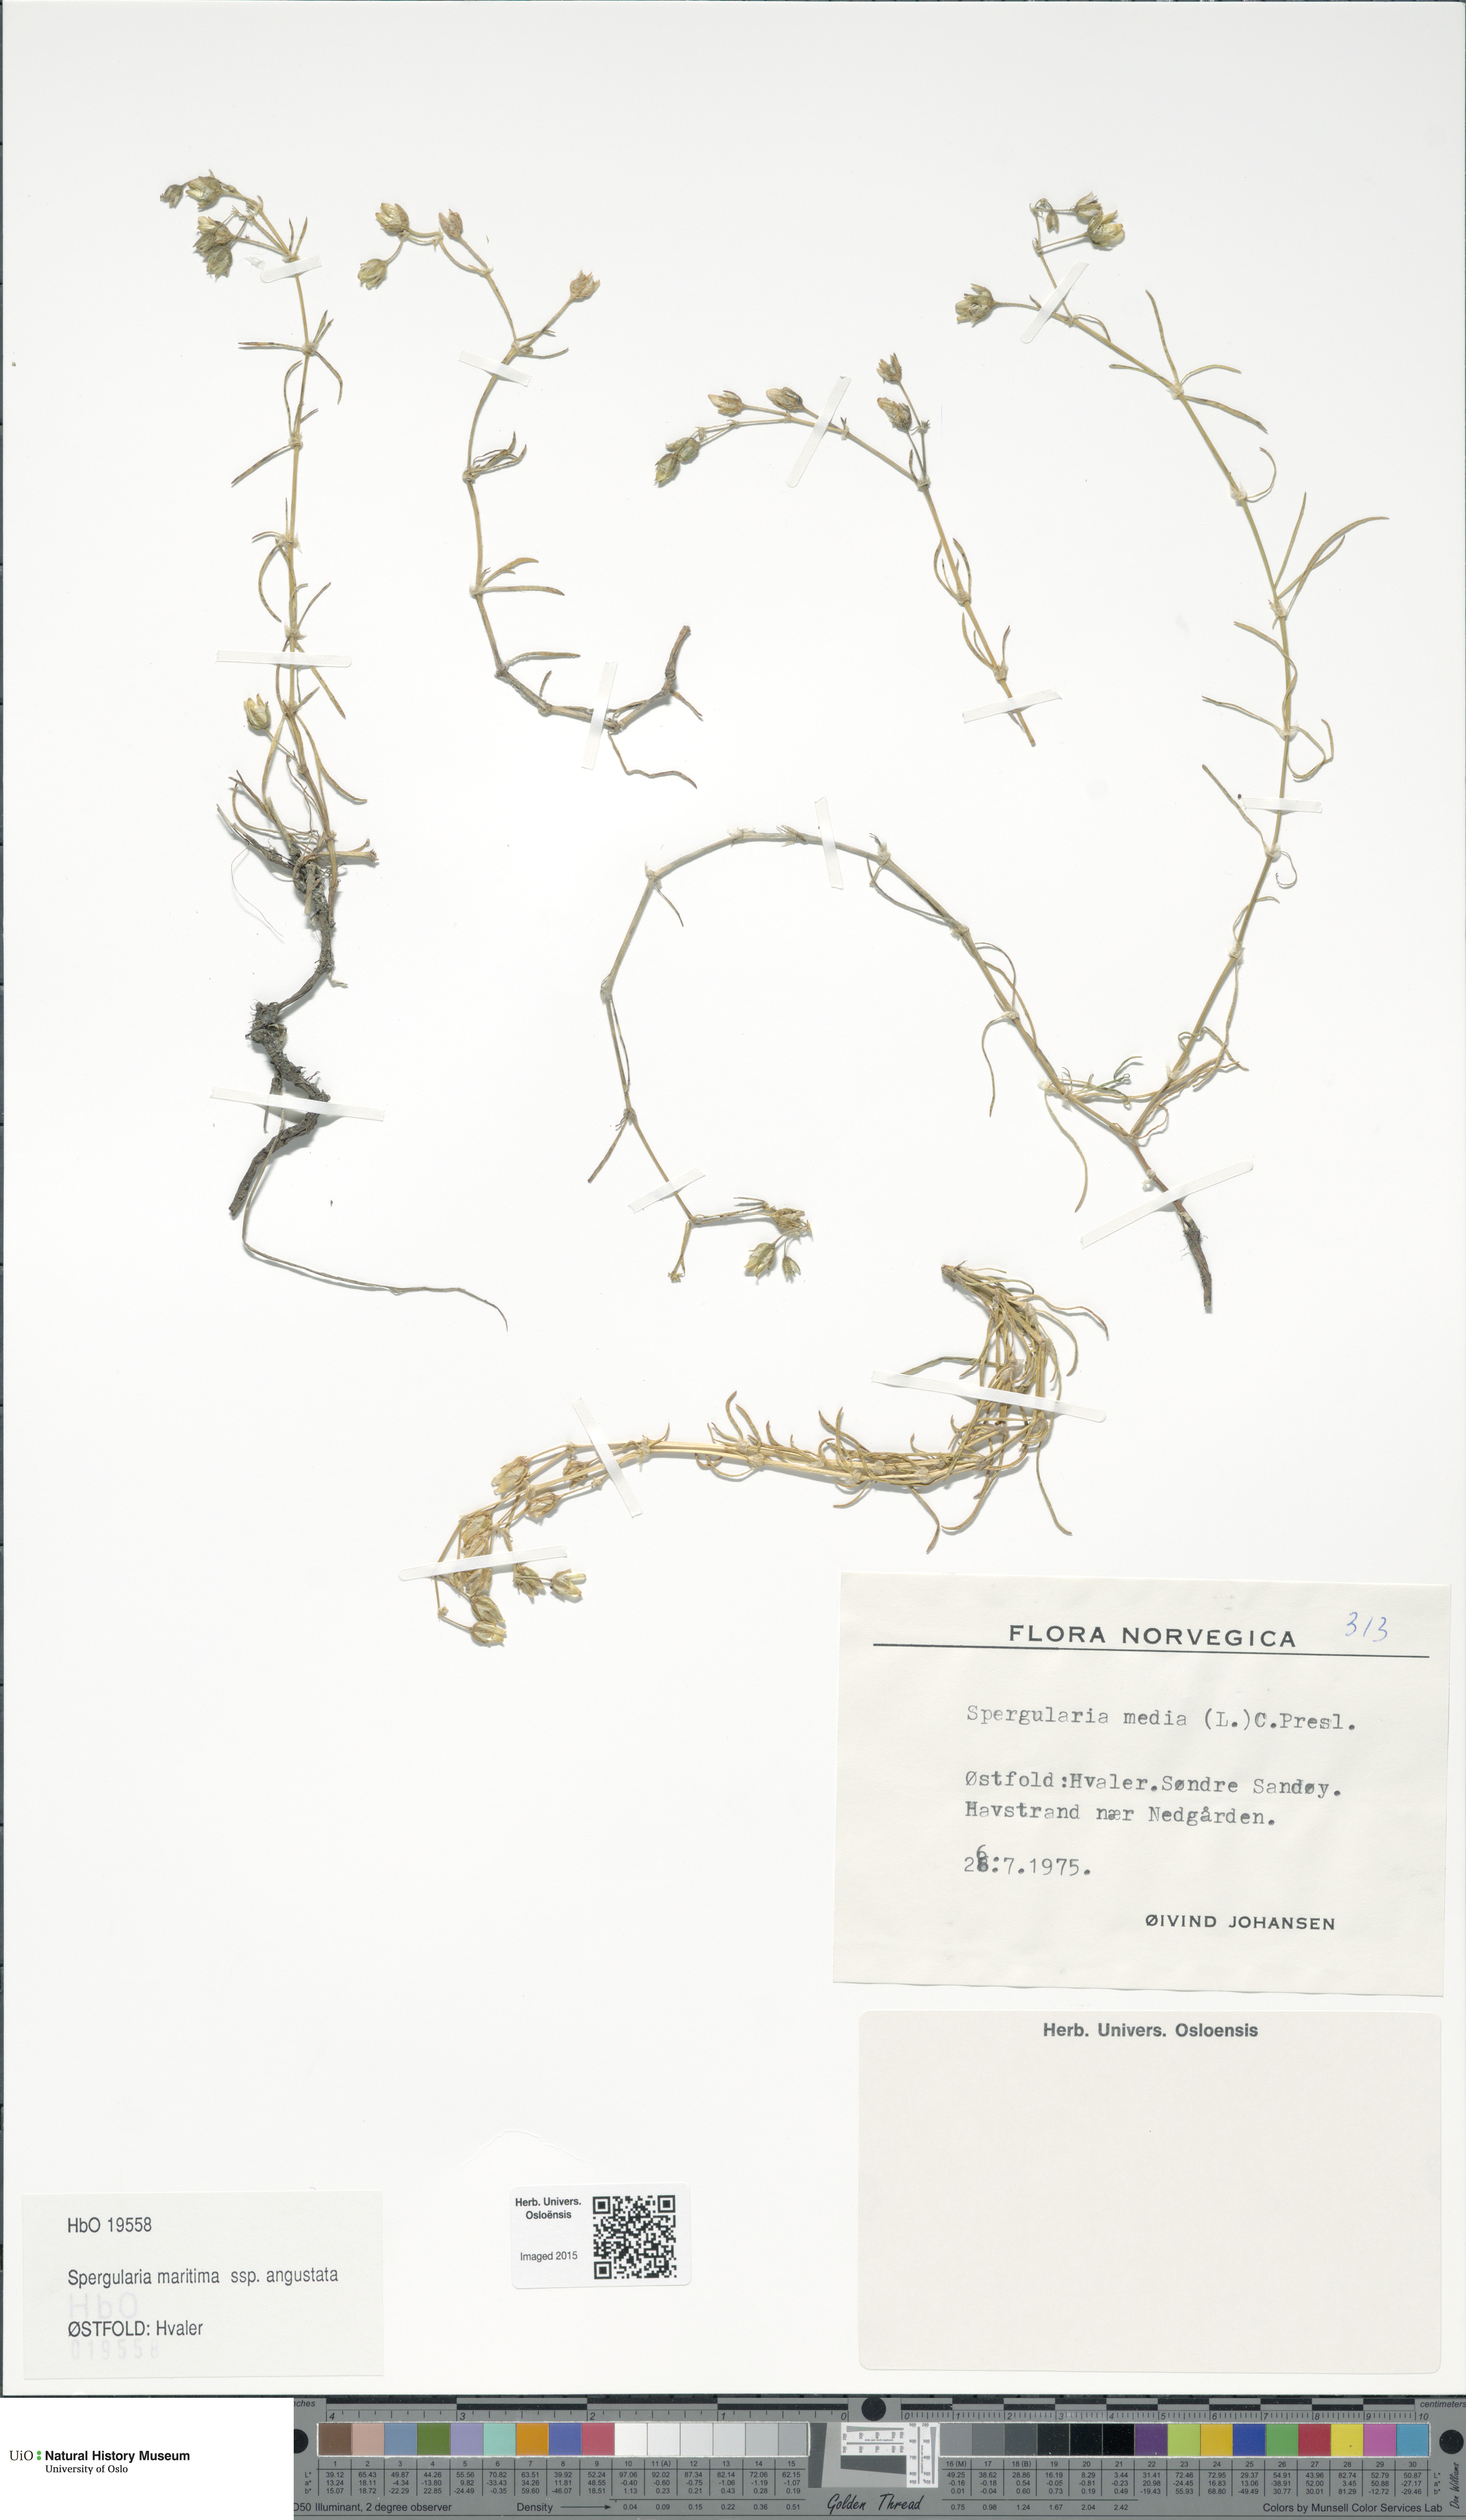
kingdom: Plantae
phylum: Tracheophyta
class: Magnoliopsida
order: Caryophyllales
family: Caryophyllaceae
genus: Spergularia
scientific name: Spergularia media
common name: Greater sea-spurrey
